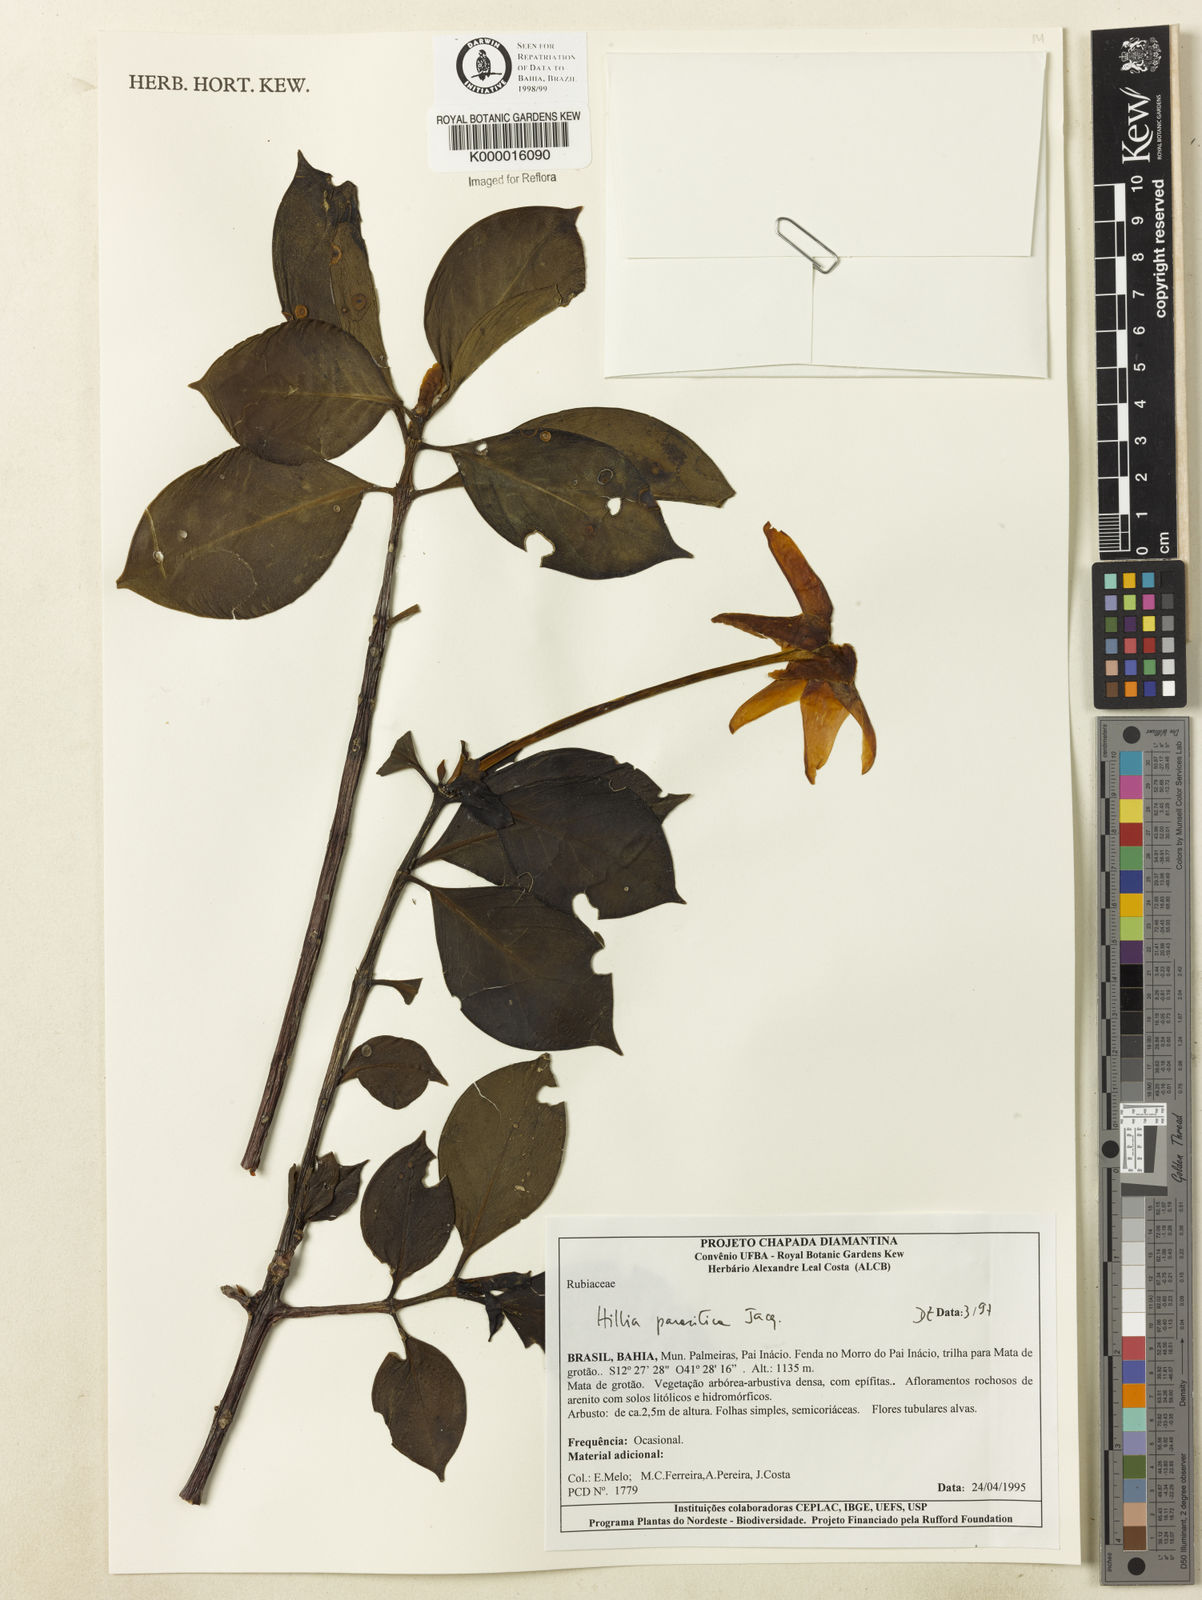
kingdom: Plantae
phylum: Tracheophyta
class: Magnoliopsida
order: Gentianales
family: Rubiaceae
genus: Hillia
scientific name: Hillia parasitica
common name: Morning star
